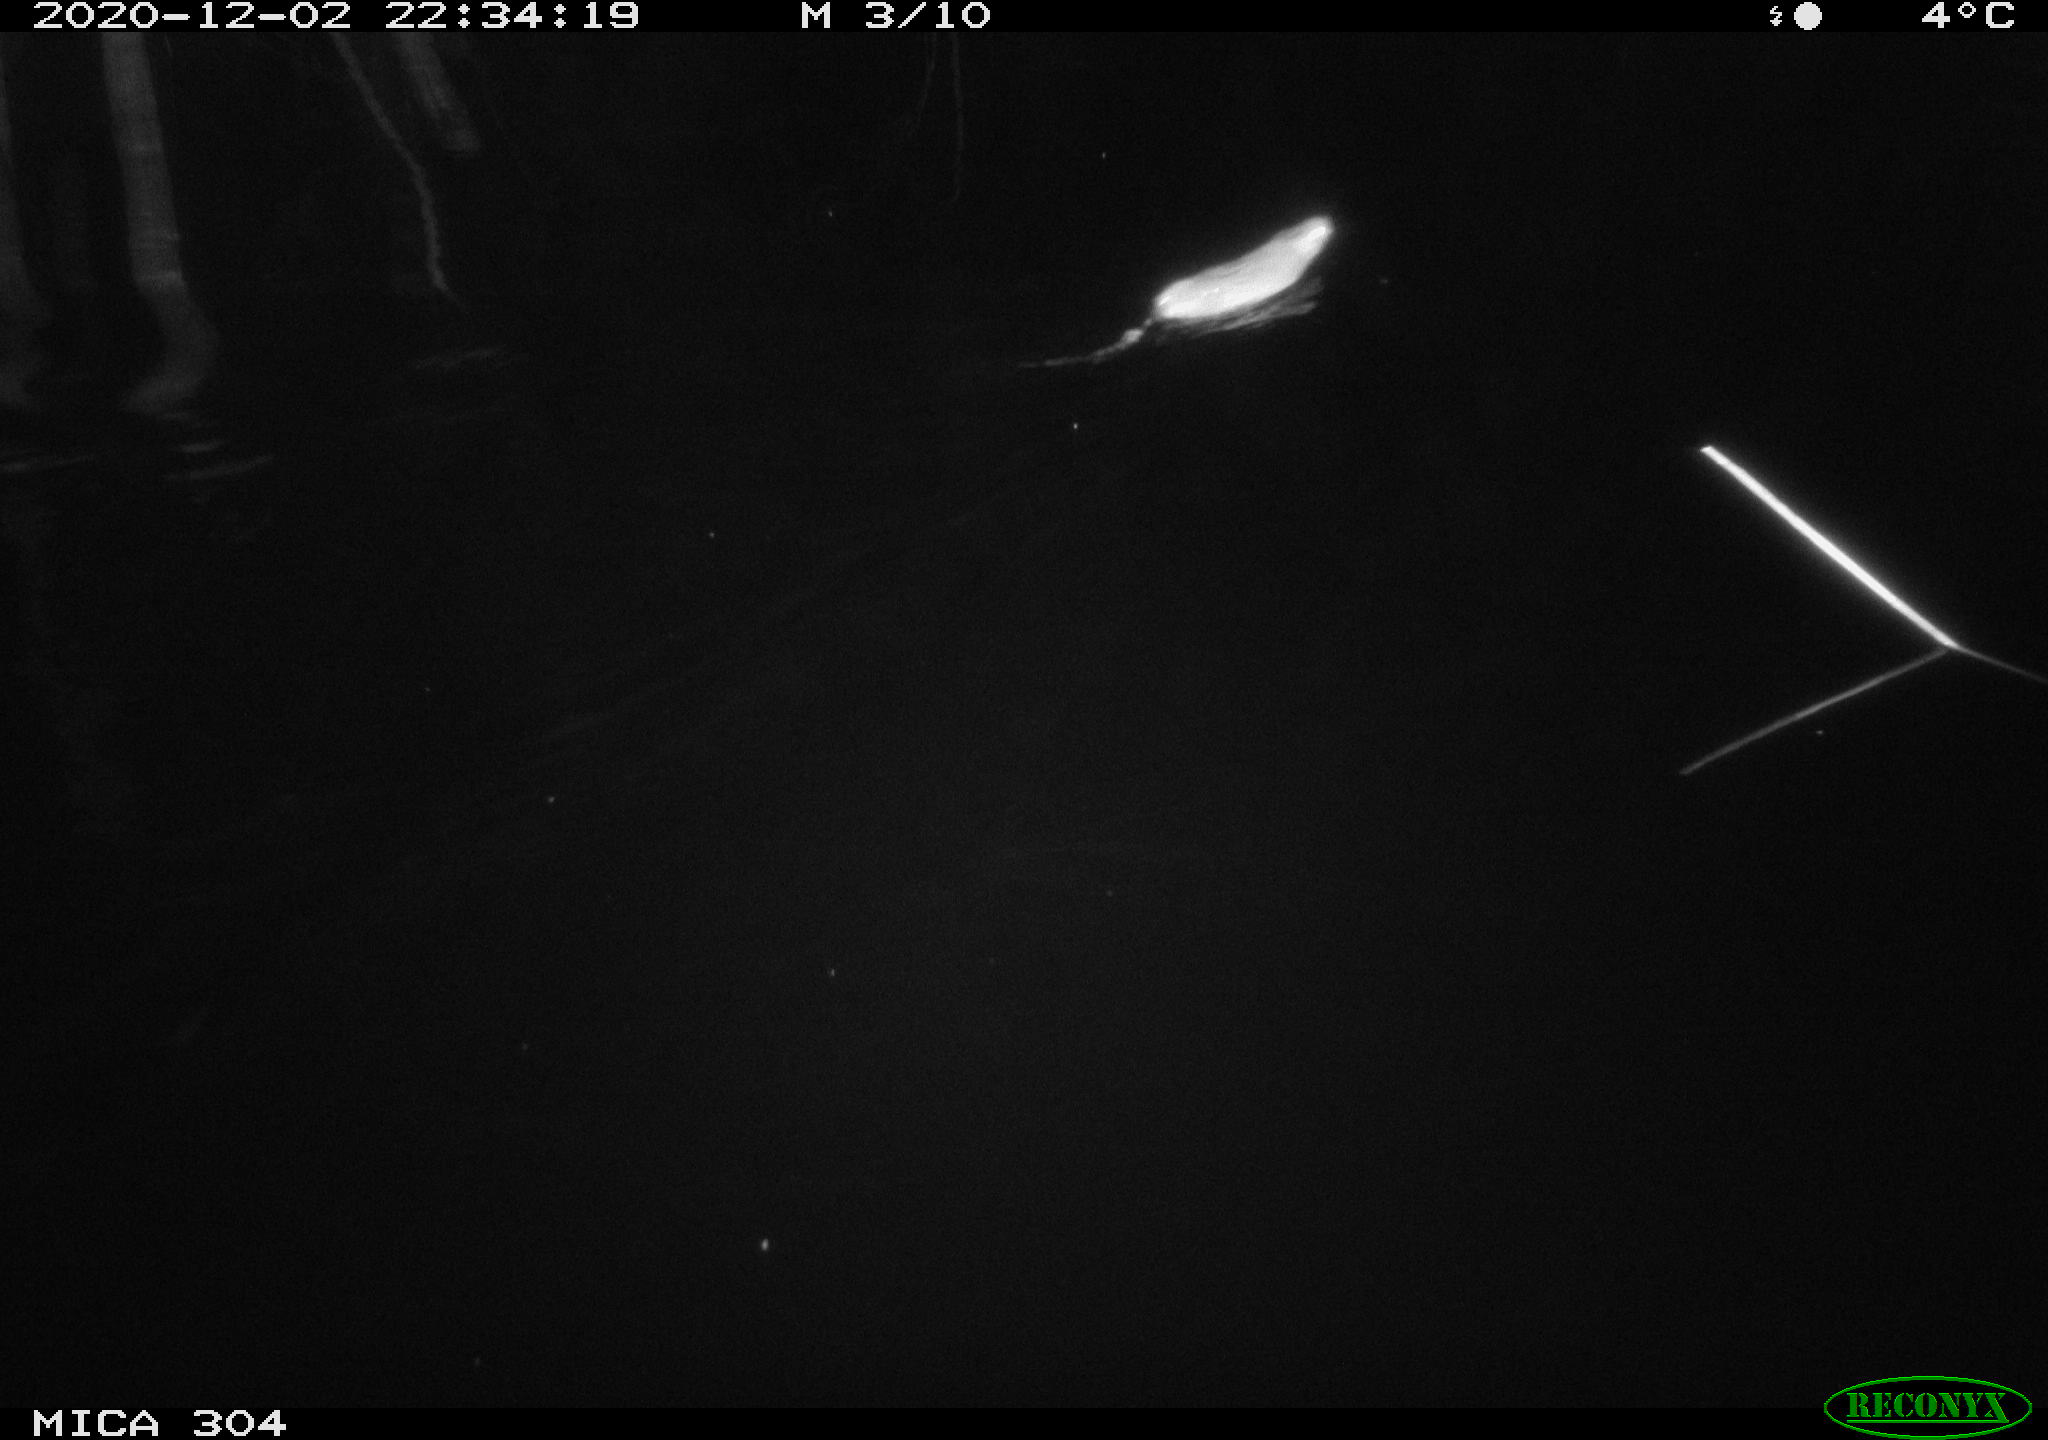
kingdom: Animalia
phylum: Chordata
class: Mammalia
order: Rodentia
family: Muridae
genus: Rattus
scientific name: Rattus norvegicus
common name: Brown rat
